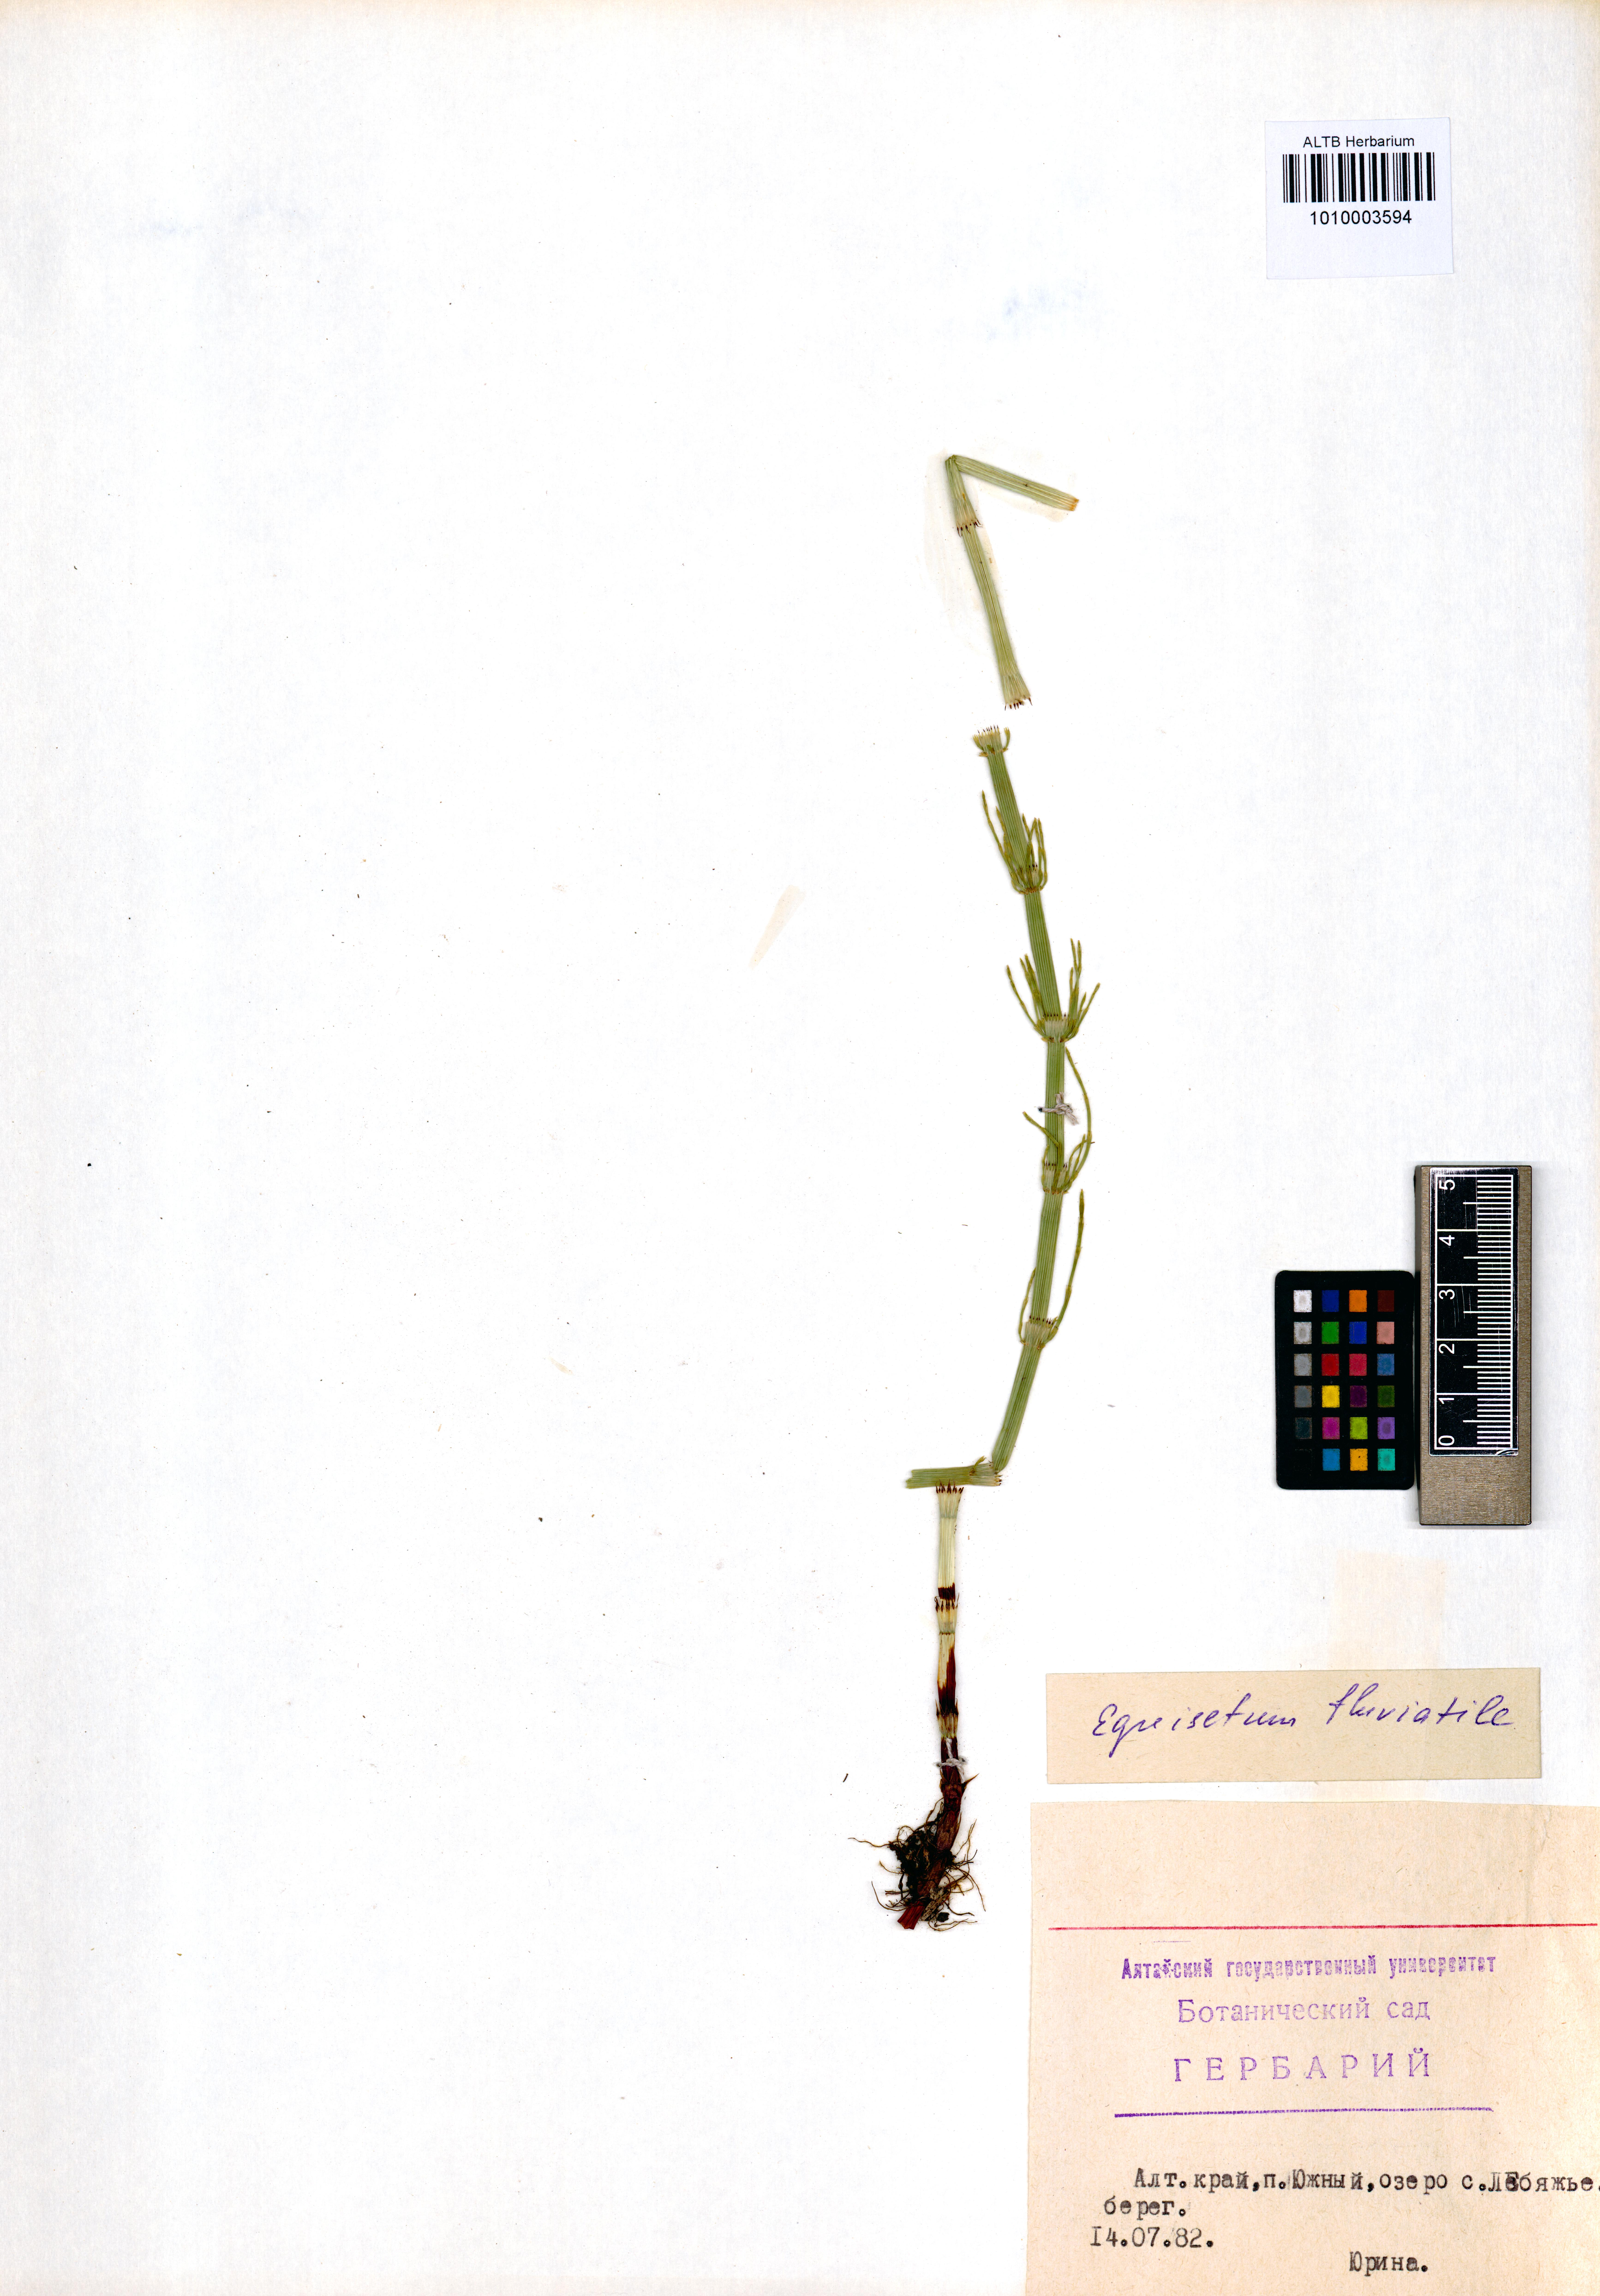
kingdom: Plantae
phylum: Tracheophyta
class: Polypodiopsida
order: Equisetales
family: Equisetaceae
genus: Equisetum
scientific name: Equisetum fluviatile
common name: Water horsetail
